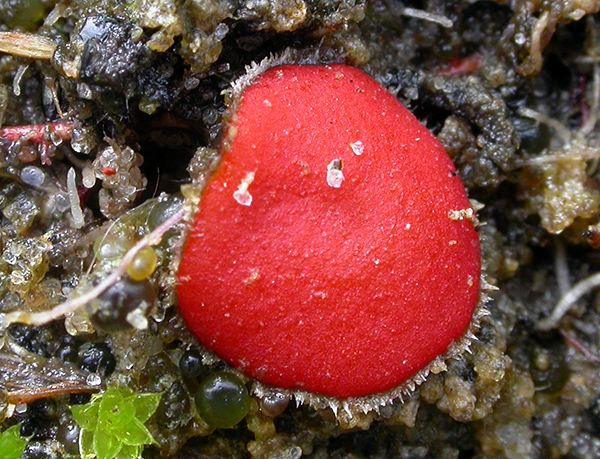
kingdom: Fungi
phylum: Ascomycota
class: Pezizomycetes
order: Pezizales
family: Pyronemataceae
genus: Scutellinia
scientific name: Scutellinia kerguelensis
